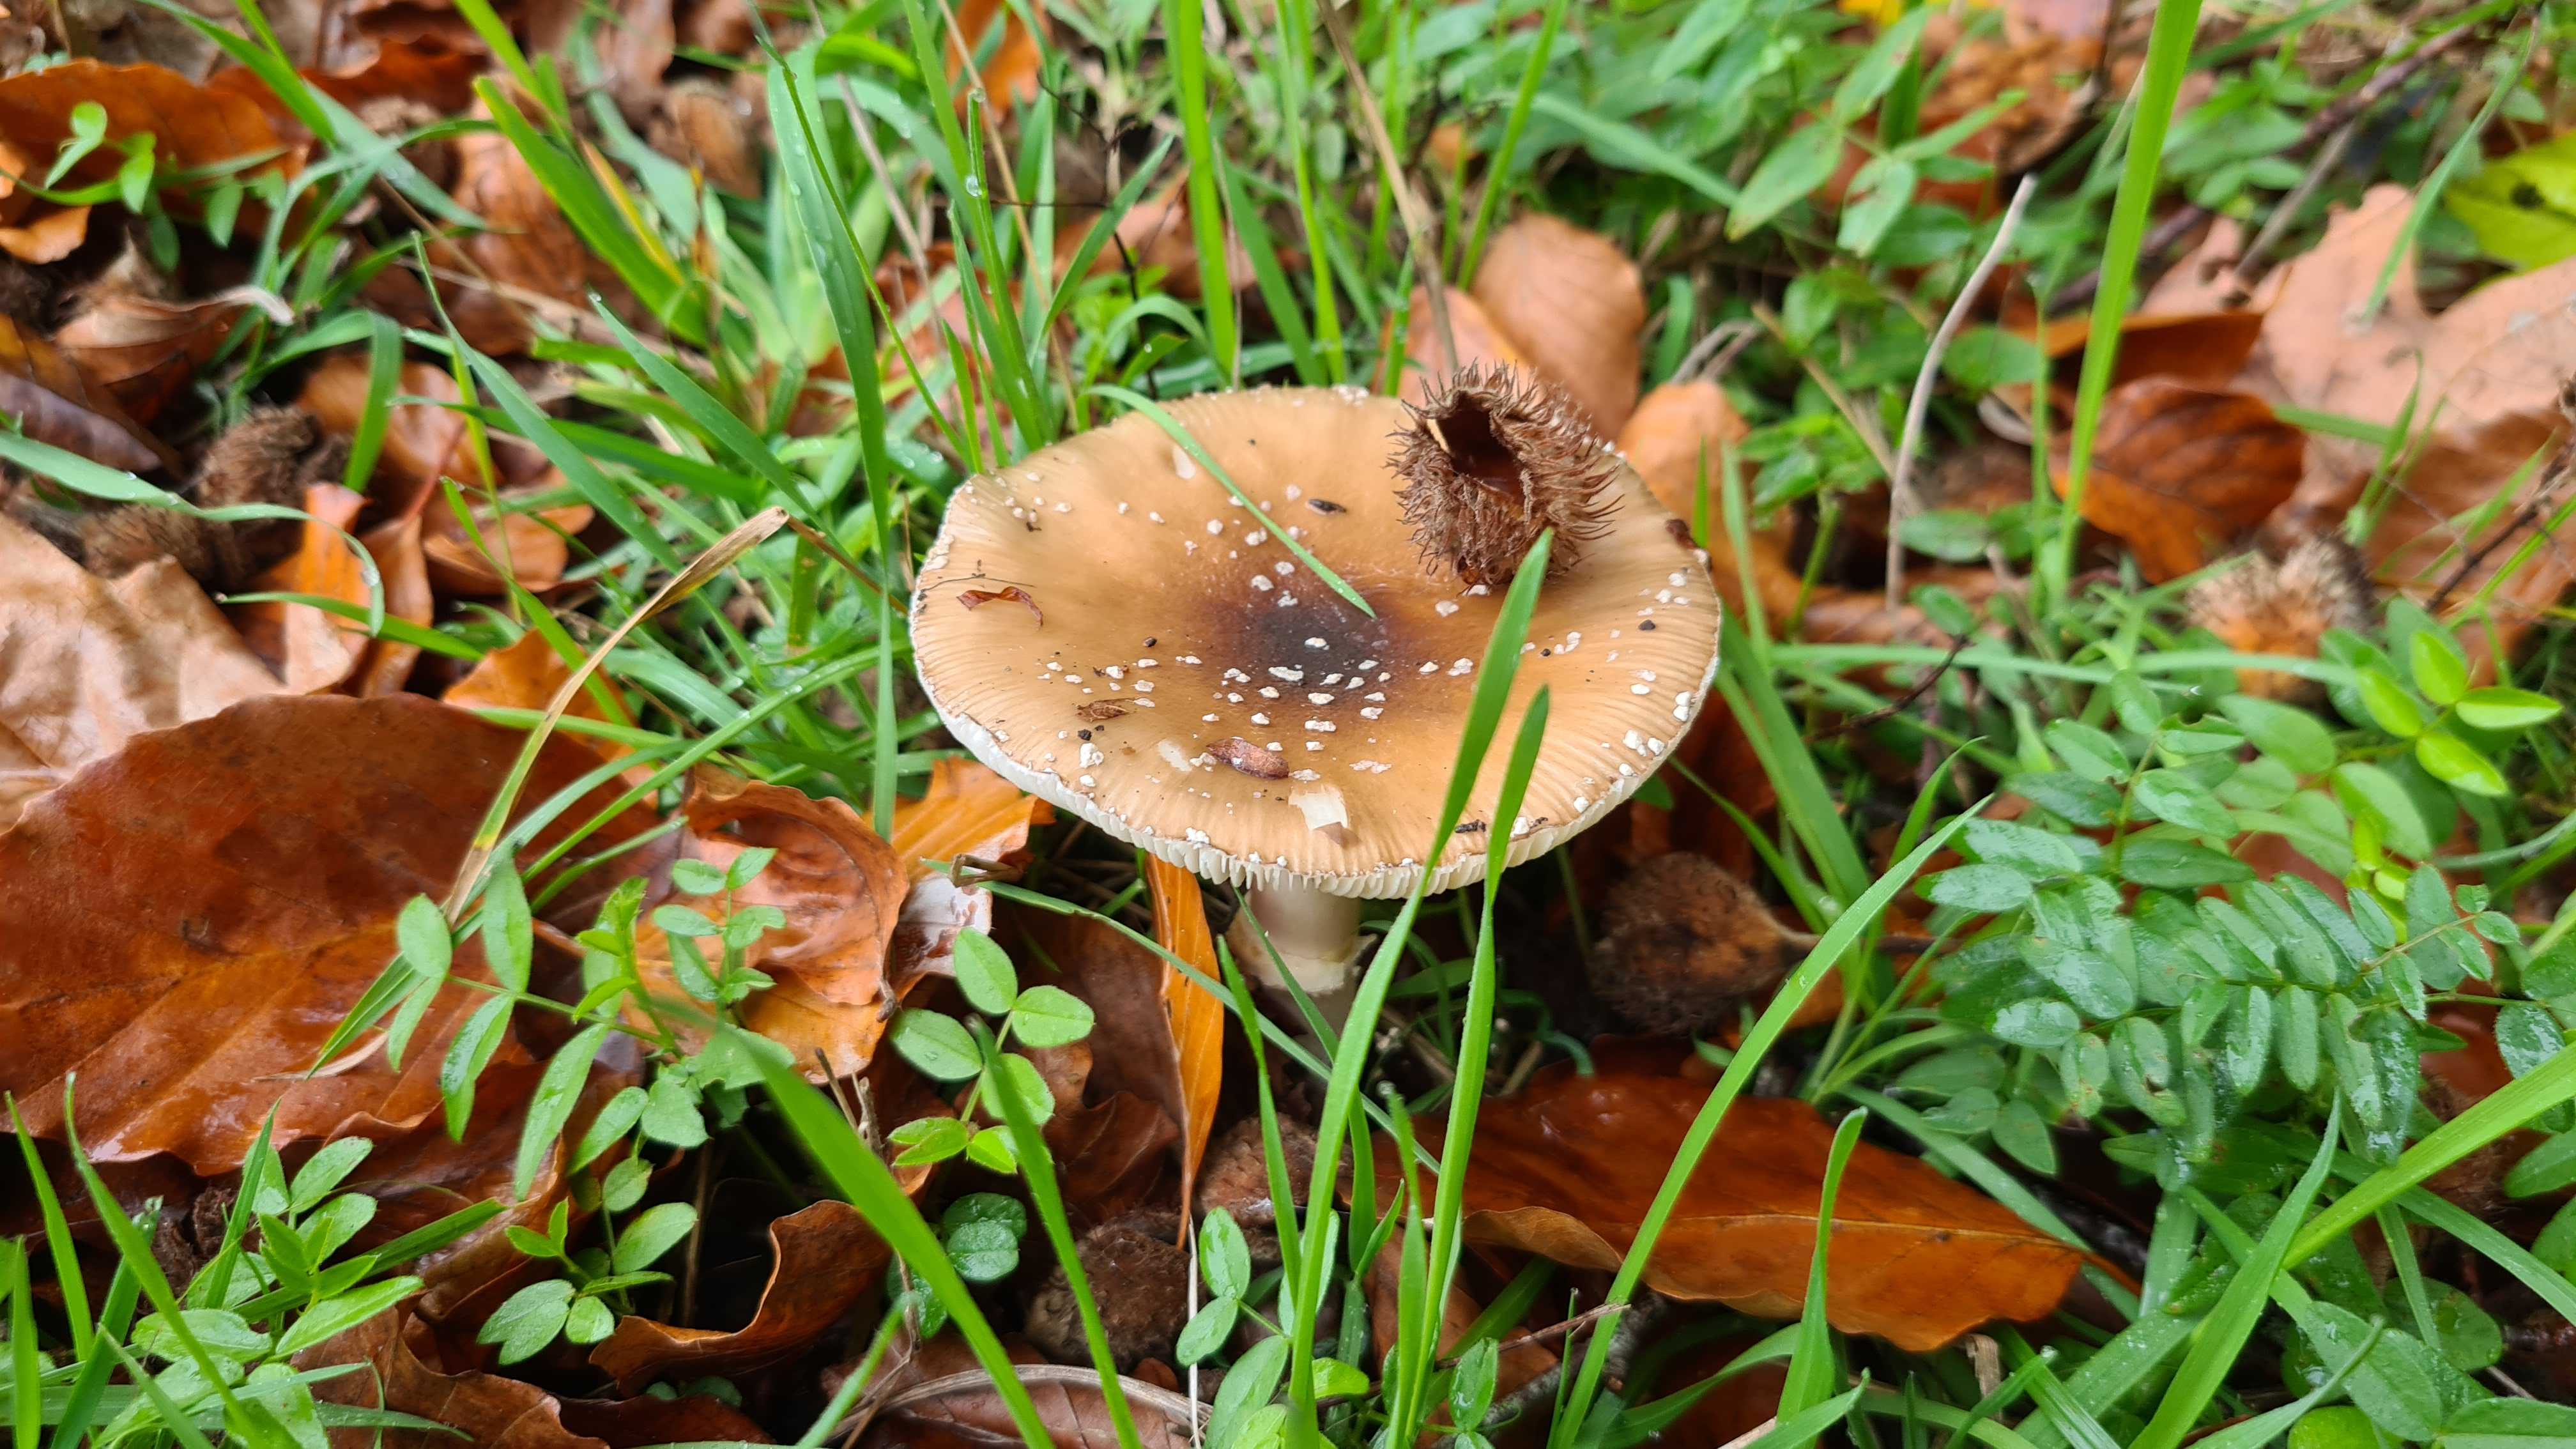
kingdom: Fungi
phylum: Basidiomycota
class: Agaricomycetes
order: Agaricales
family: Amanitaceae
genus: Amanita
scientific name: Amanita pantherina
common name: panter-fluesvamp
